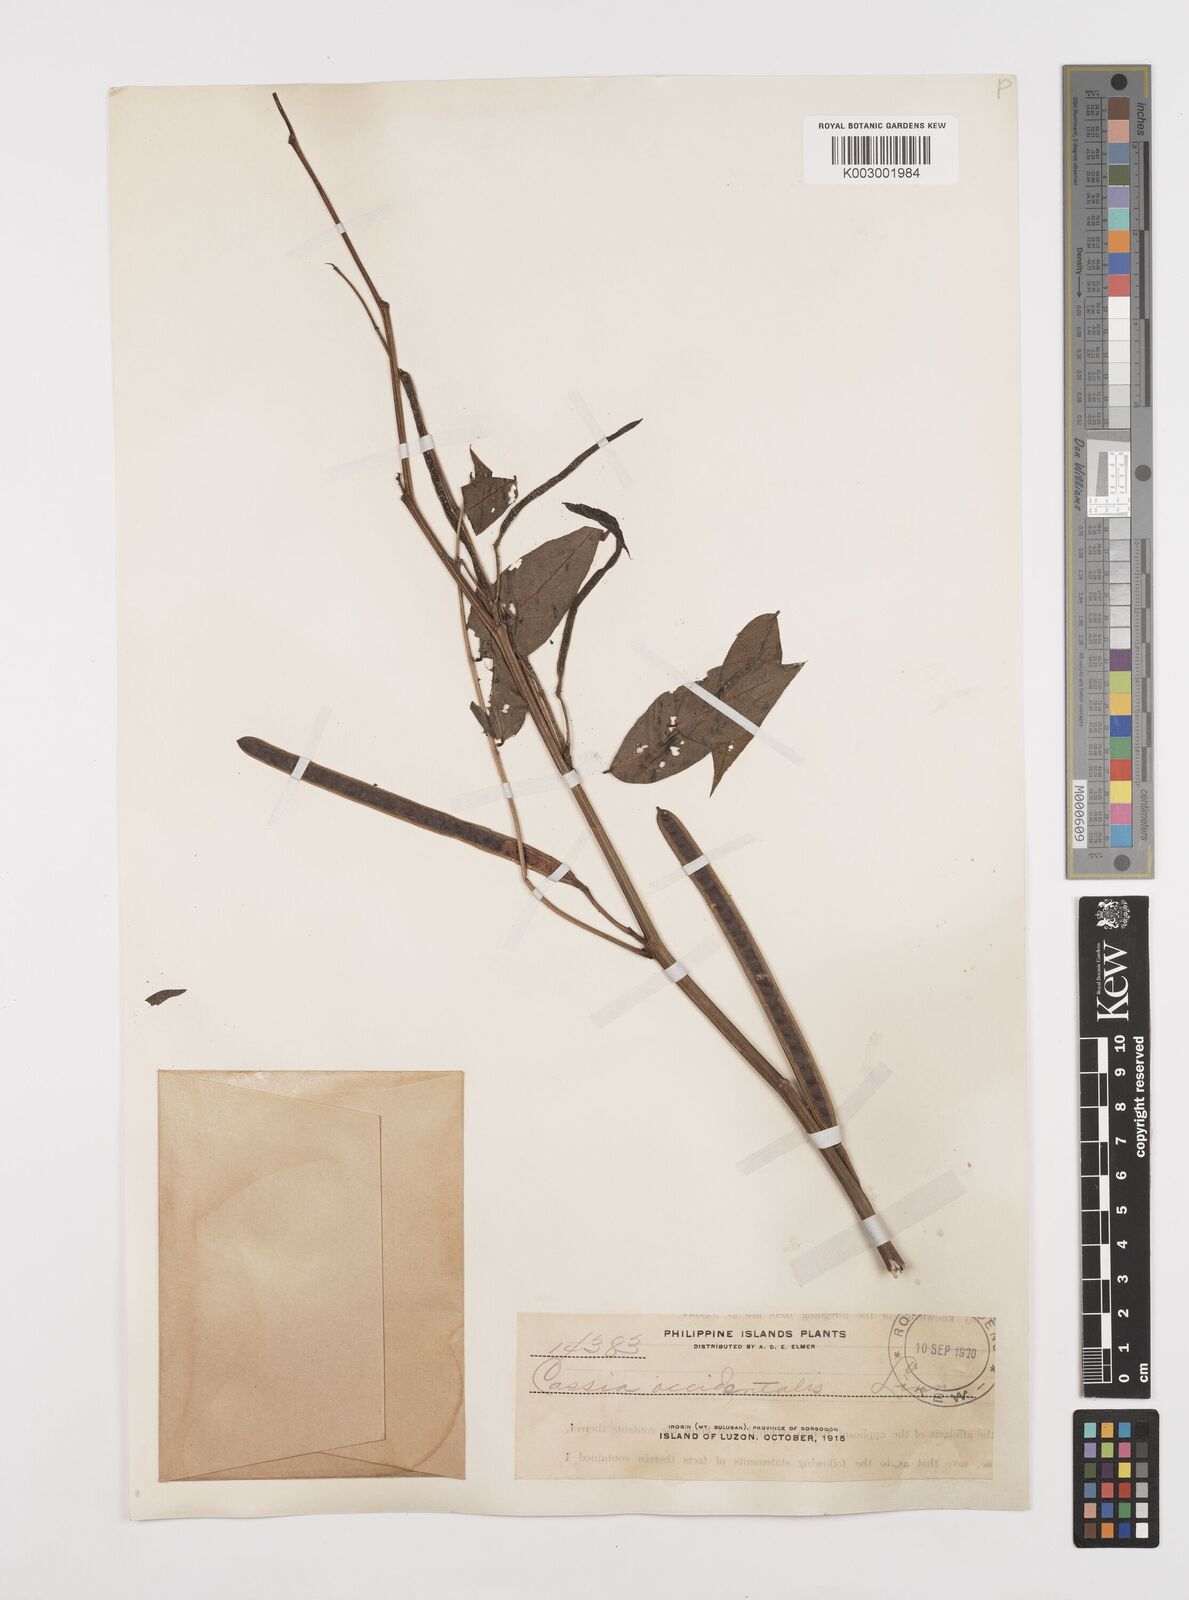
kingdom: Plantae
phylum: Tracheophyta
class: Magnoliopsida
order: Fabales
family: Fabaceae
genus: Senna
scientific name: Senna occidentalis
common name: Septicweed
